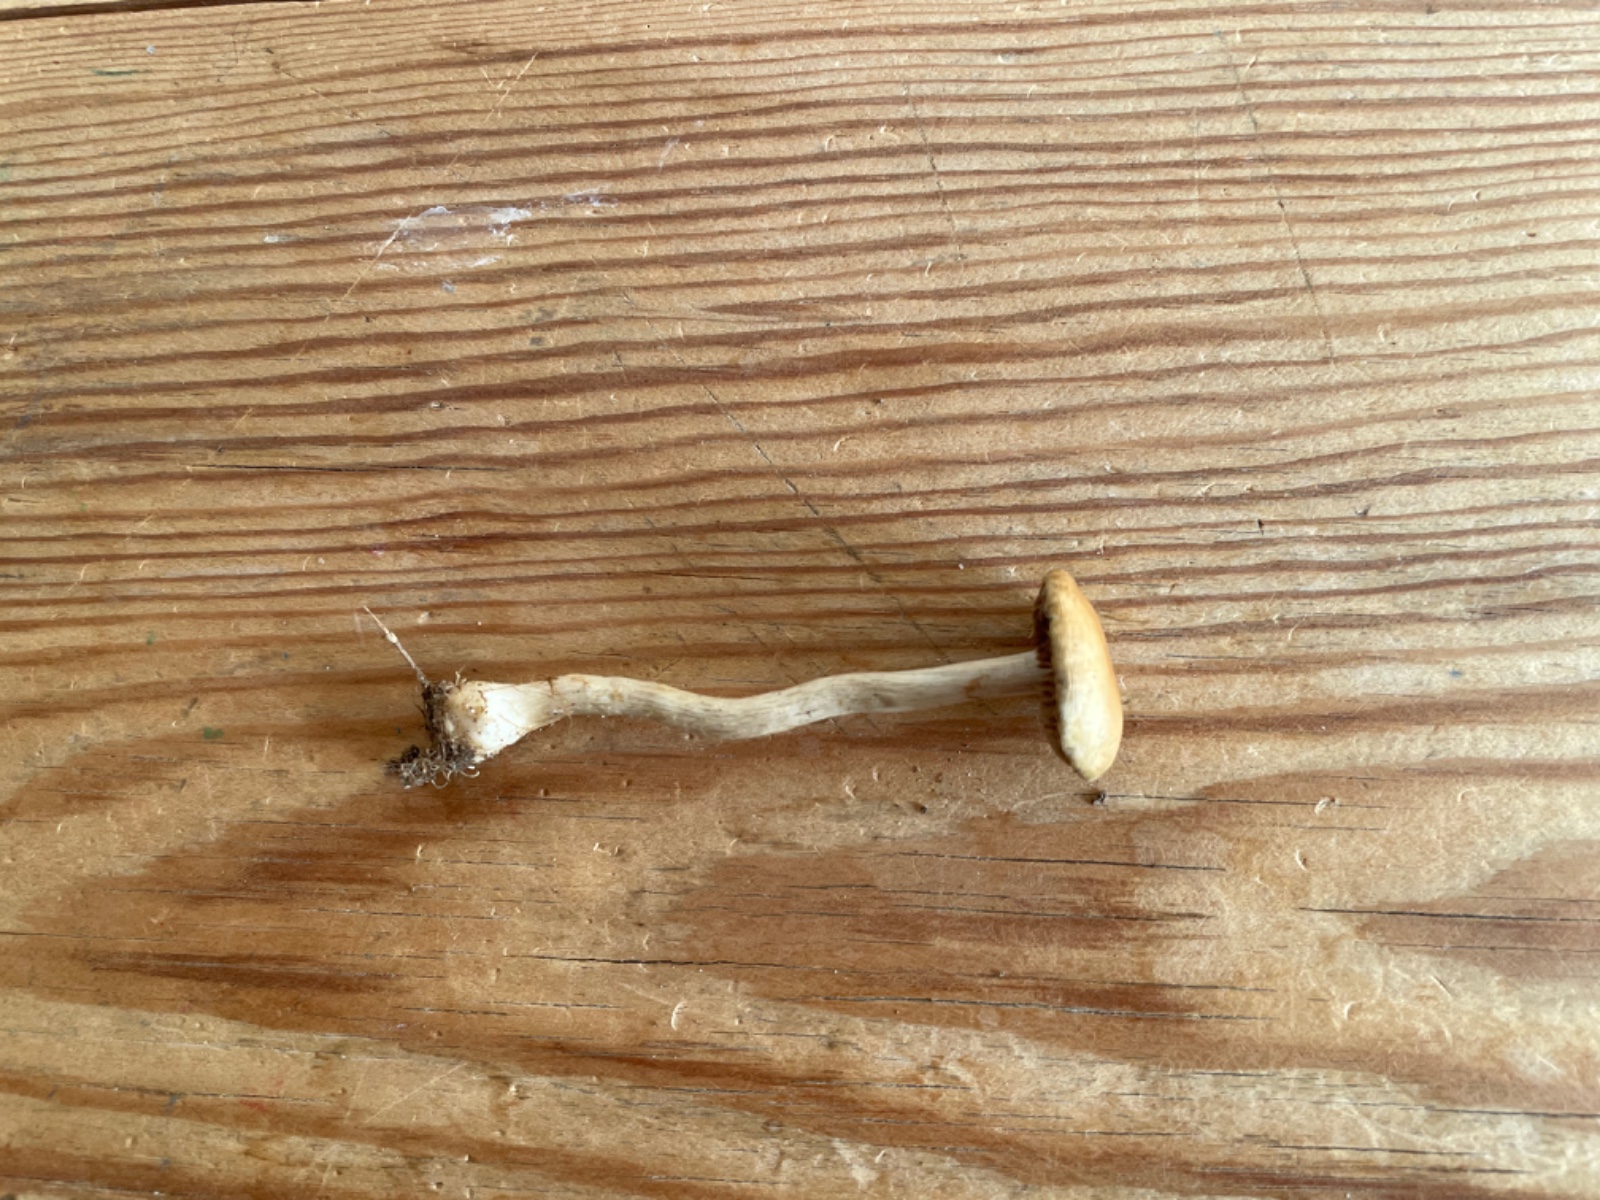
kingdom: Fungi
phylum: Basidiomycota
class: Agaricomycetes
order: Agaricales
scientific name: Agaricales
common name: champignonordenen
